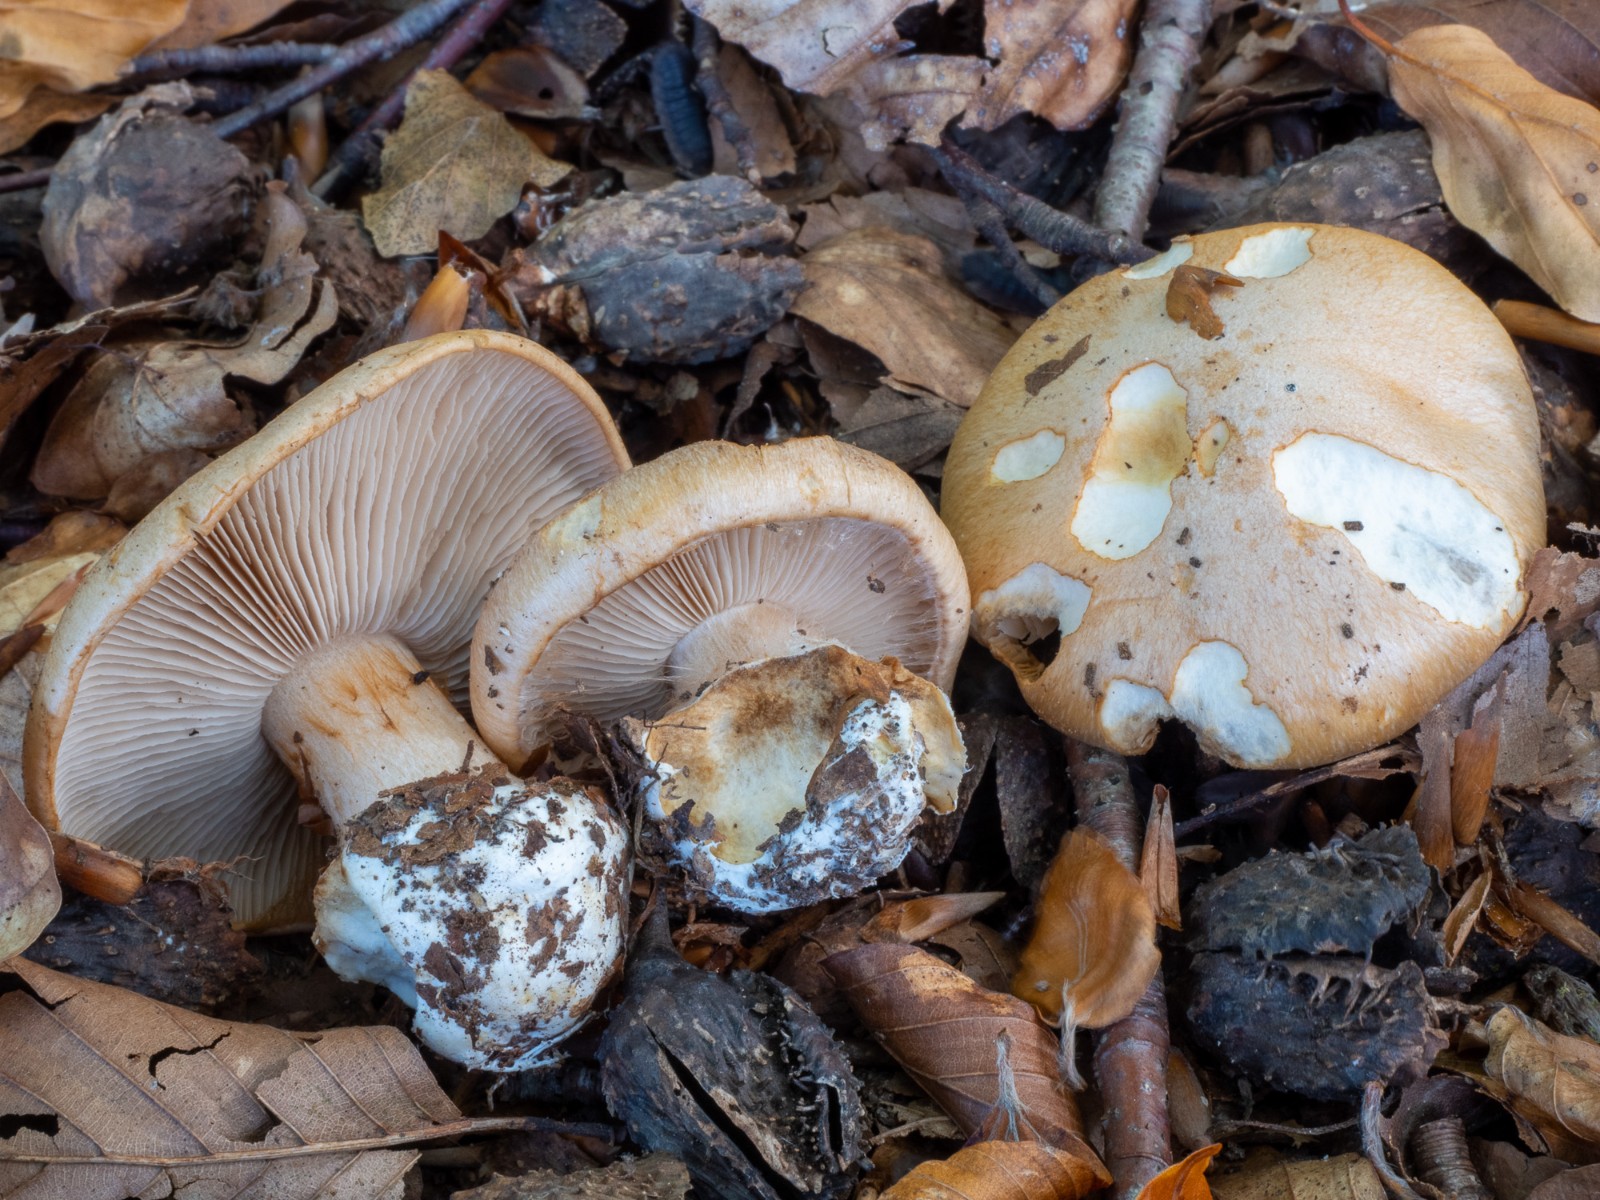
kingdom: Fungi
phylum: Basidiomycota
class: Agaricomycetes
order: Agaricales
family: Cortinariaceae
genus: Thaxterogaster
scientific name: Thaxterogaster talus
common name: knogle-slørhat
